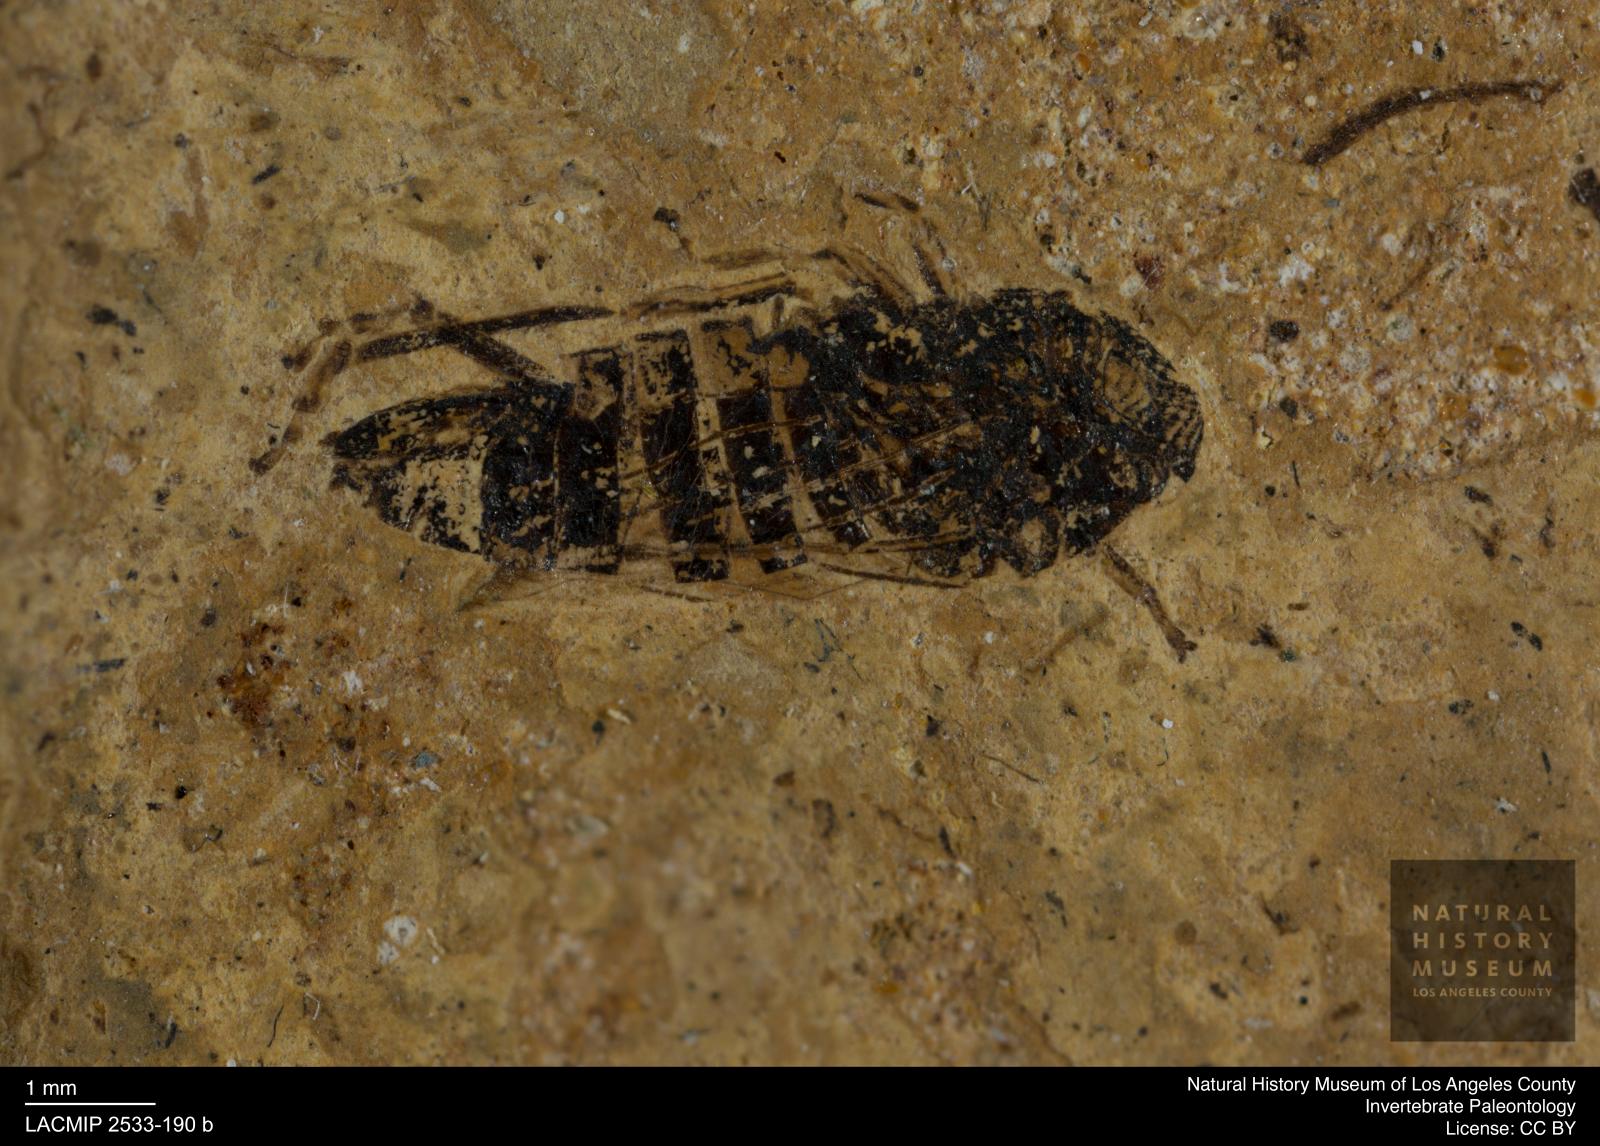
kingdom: Animalia
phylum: Arthropoda
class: Insecta
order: Hemiptera
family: Cicadellidae
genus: Thamnotettix
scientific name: Thamnotettix anthracinus
